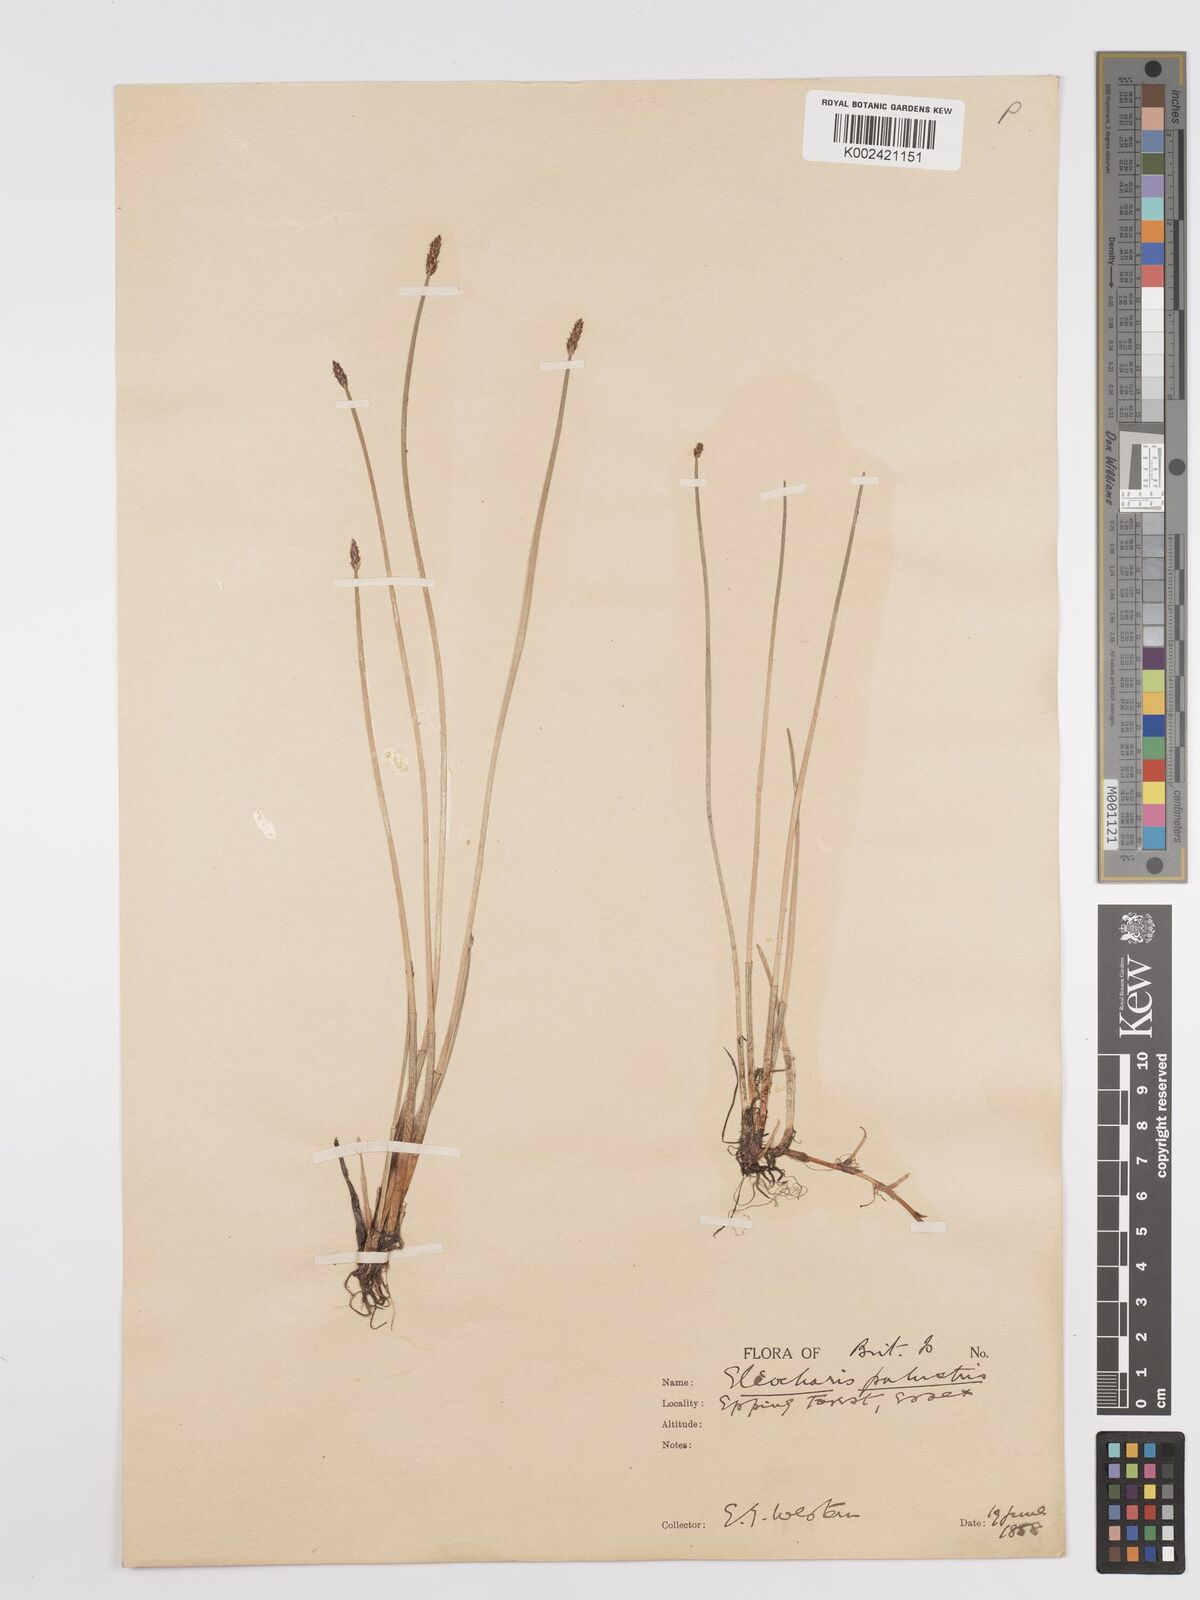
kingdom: Plantae
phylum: Tracheophyta
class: Liliopsida
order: Poales
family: Cyperaceae
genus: Eleocharis
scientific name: Eleocharis palustris
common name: Common spike-rush
